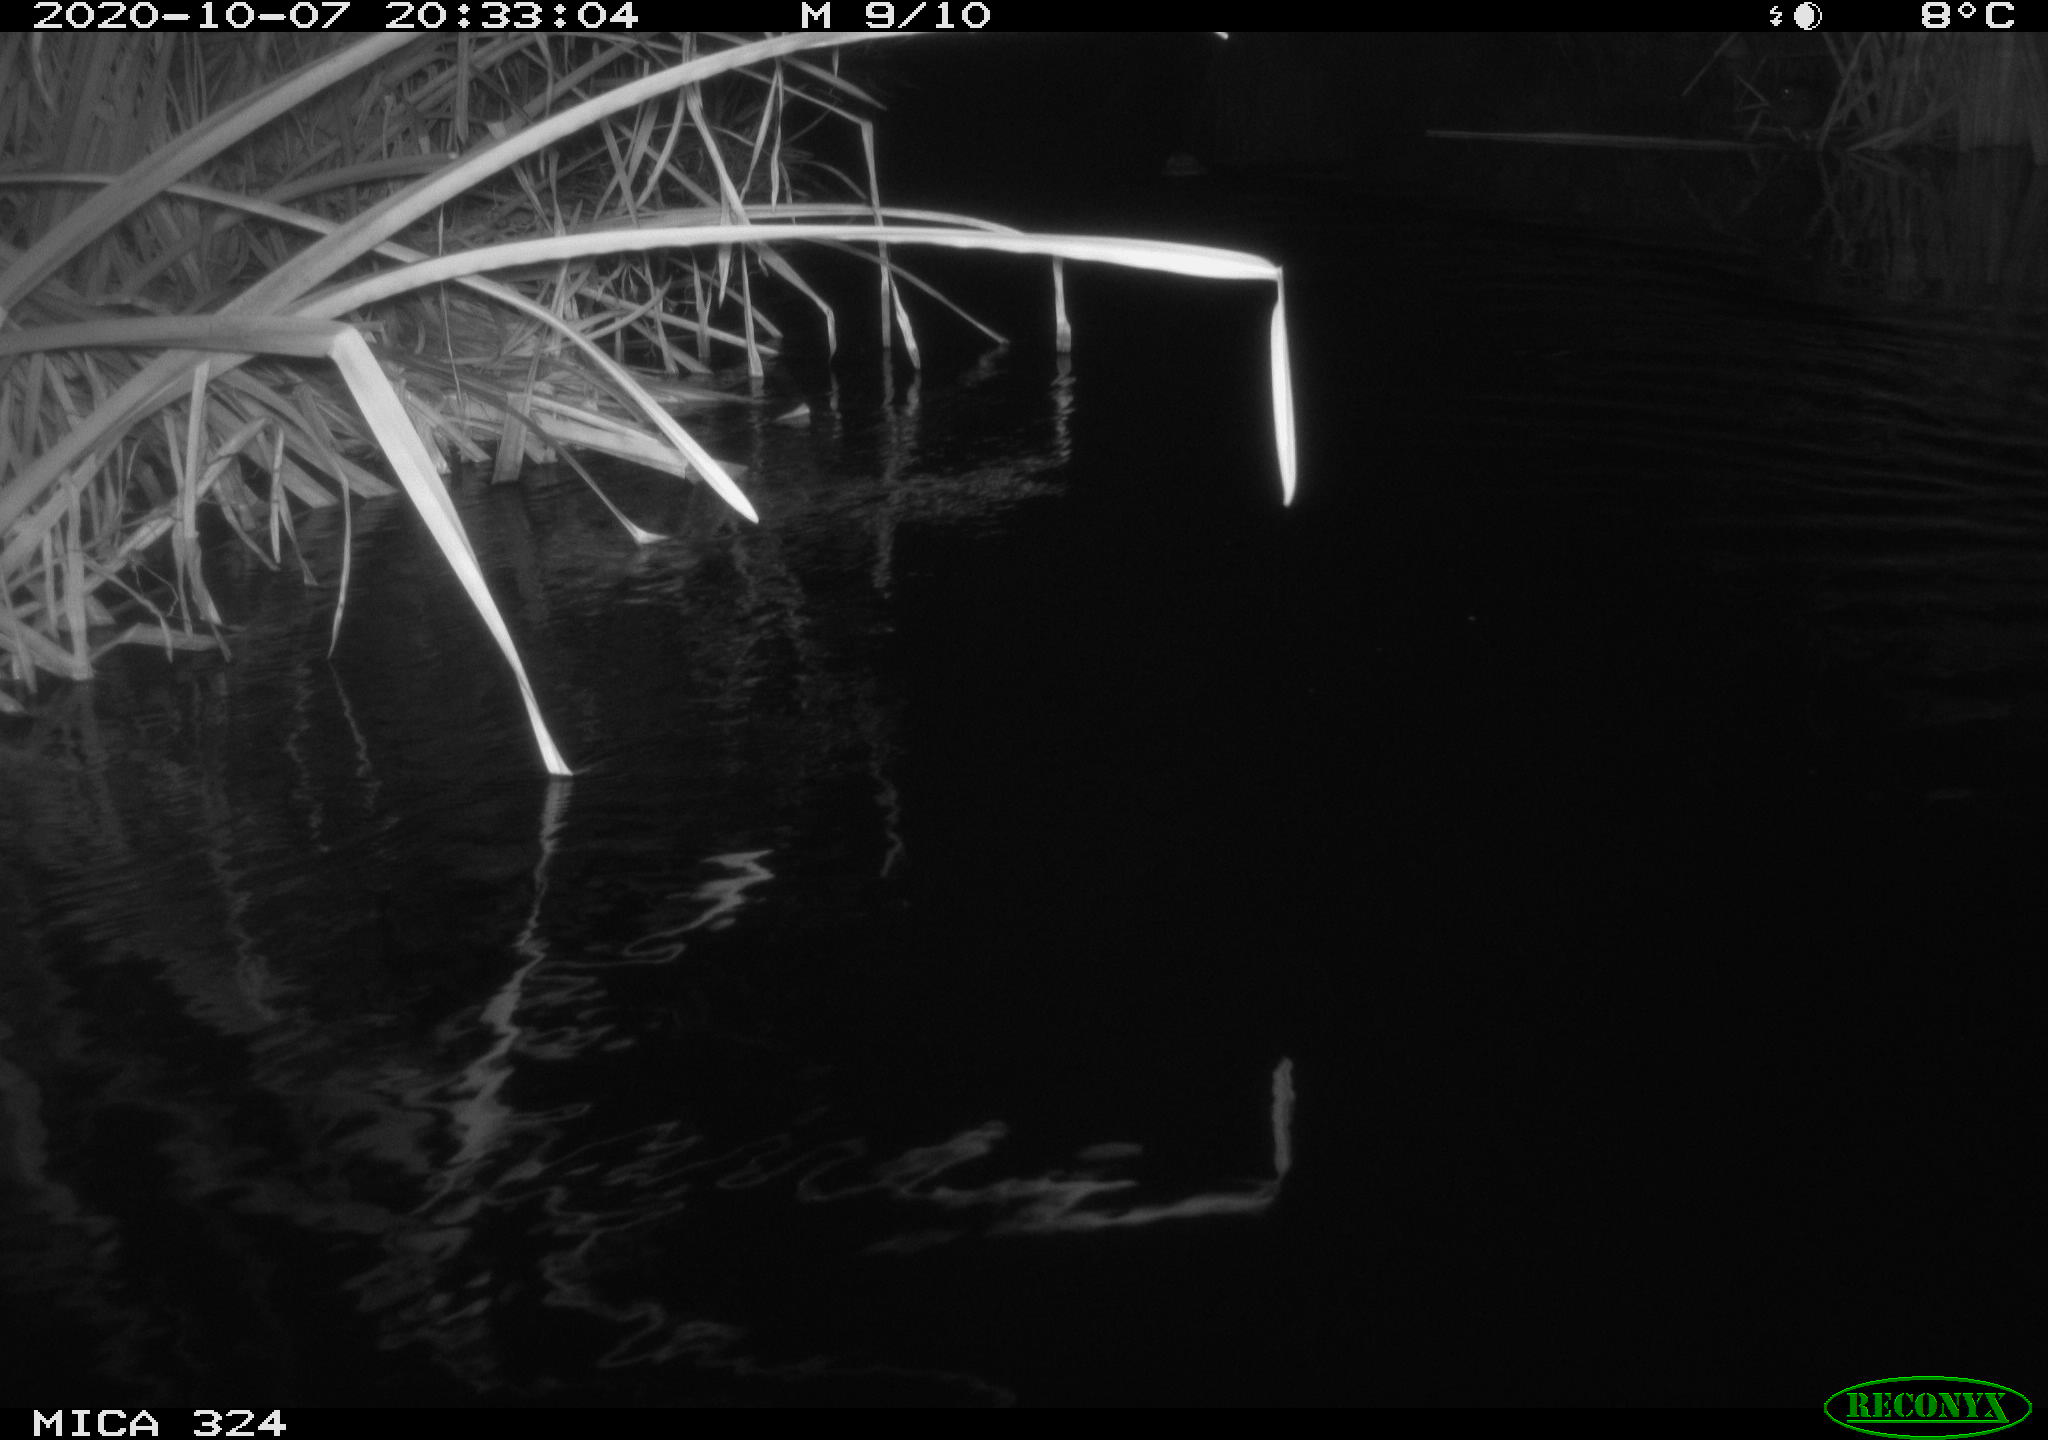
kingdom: Animalia
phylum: Chordata
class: Mammalia
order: Rodentia
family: Myocastoridae
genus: Myocastor
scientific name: Myocastor coypus
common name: Coypu
